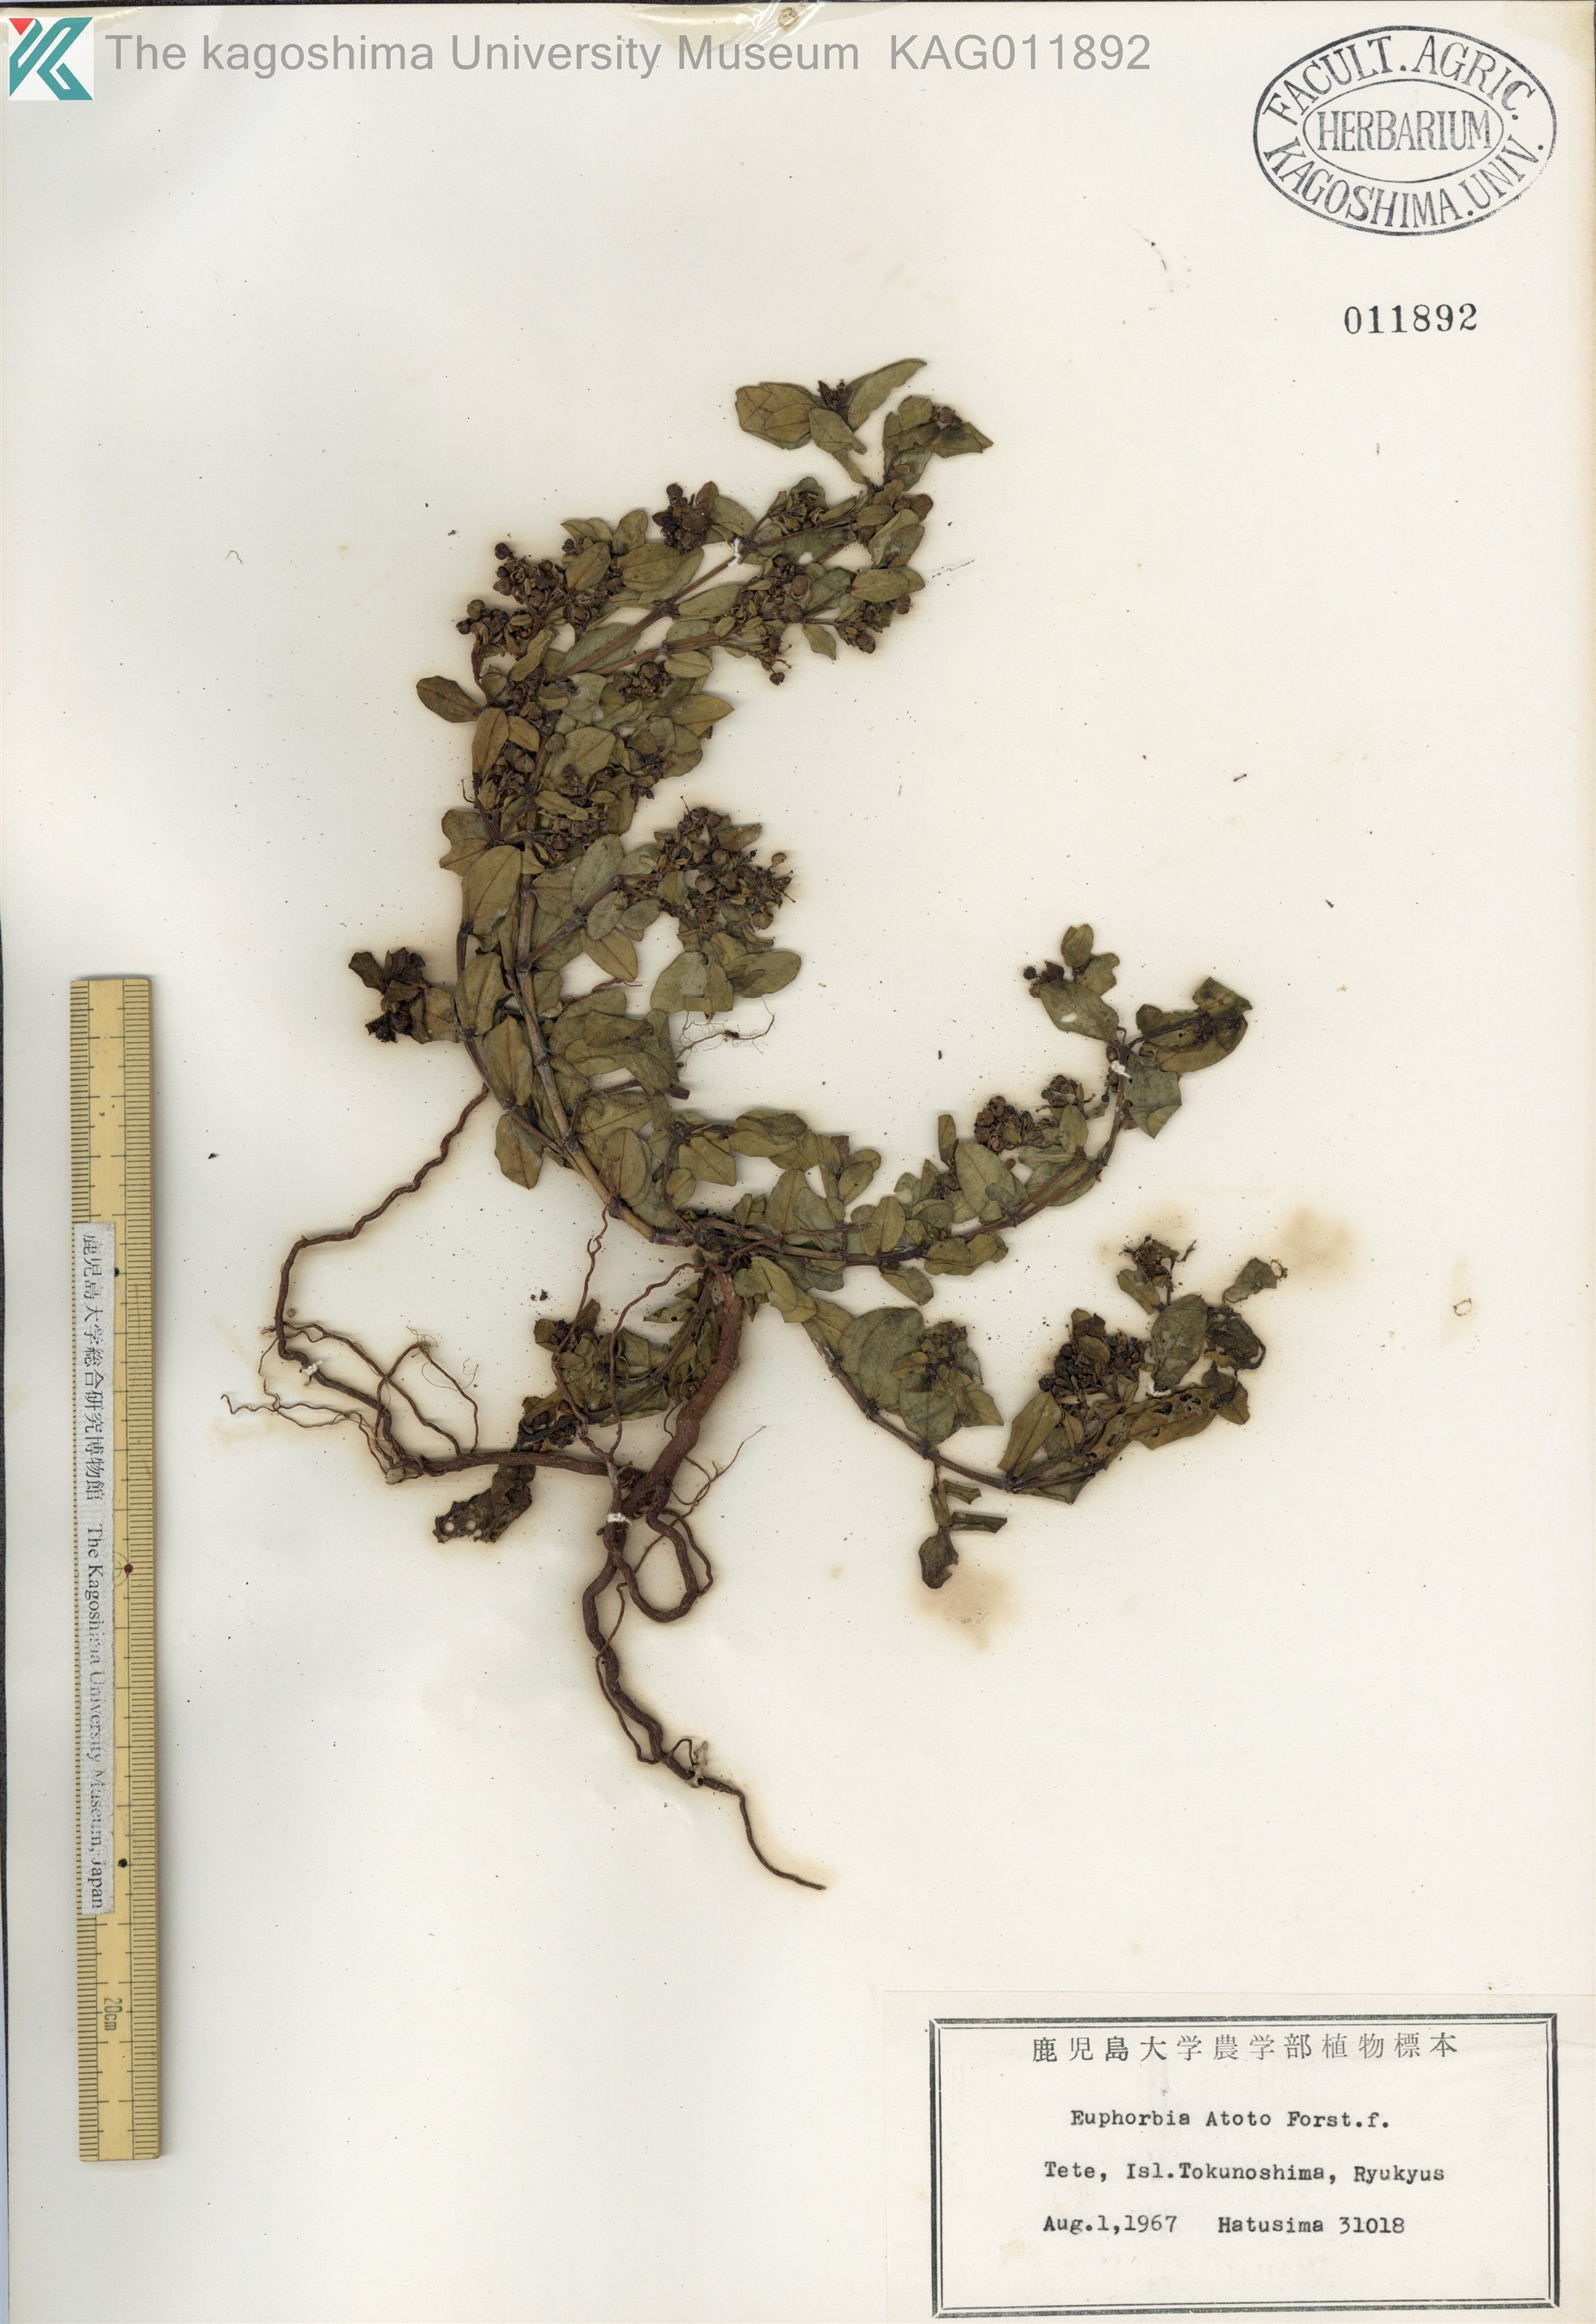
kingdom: Plantae
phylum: Tracheophyta
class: Magnoliopsida
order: Malpighiales
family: Euphorbiaceae
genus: Euphorbia
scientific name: Euphorbia chamissonis
